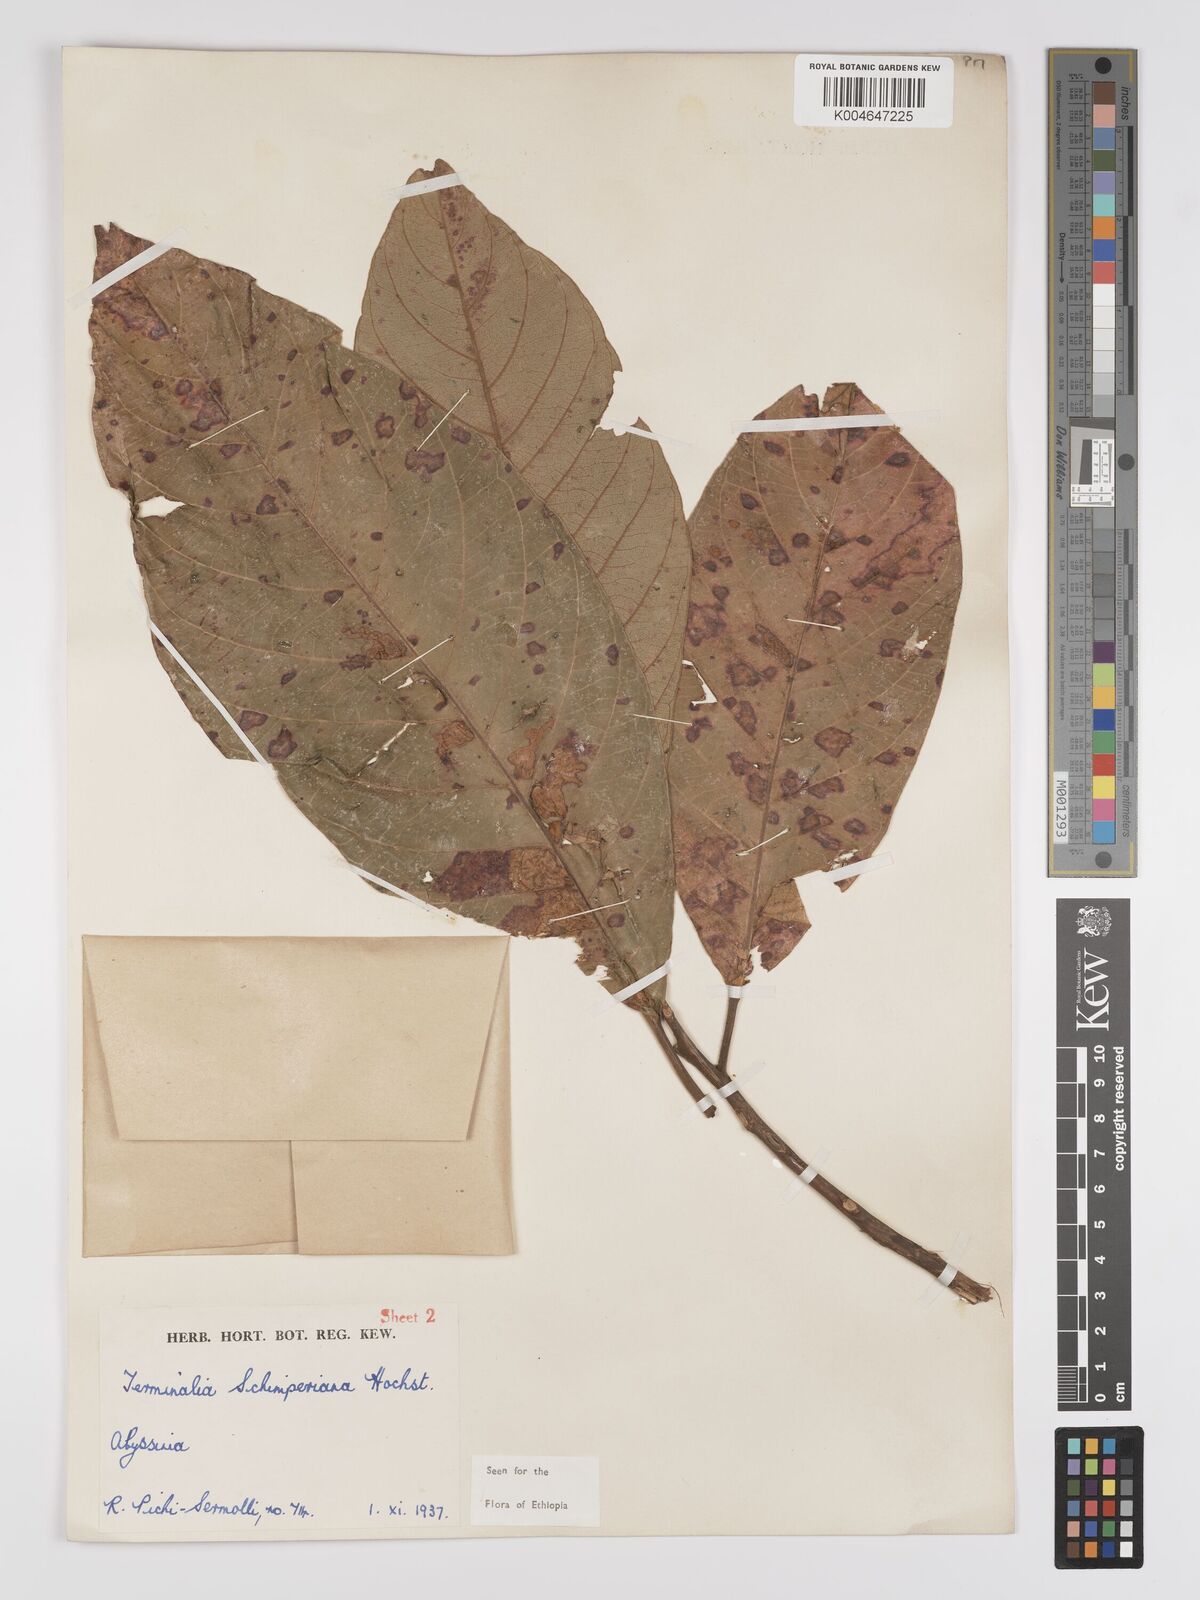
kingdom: Plantae
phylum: Tracheophyta
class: Magnoliopsida
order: Myrtales
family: Combretaceae
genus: Terminalia
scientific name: Terminalia schimperiana
